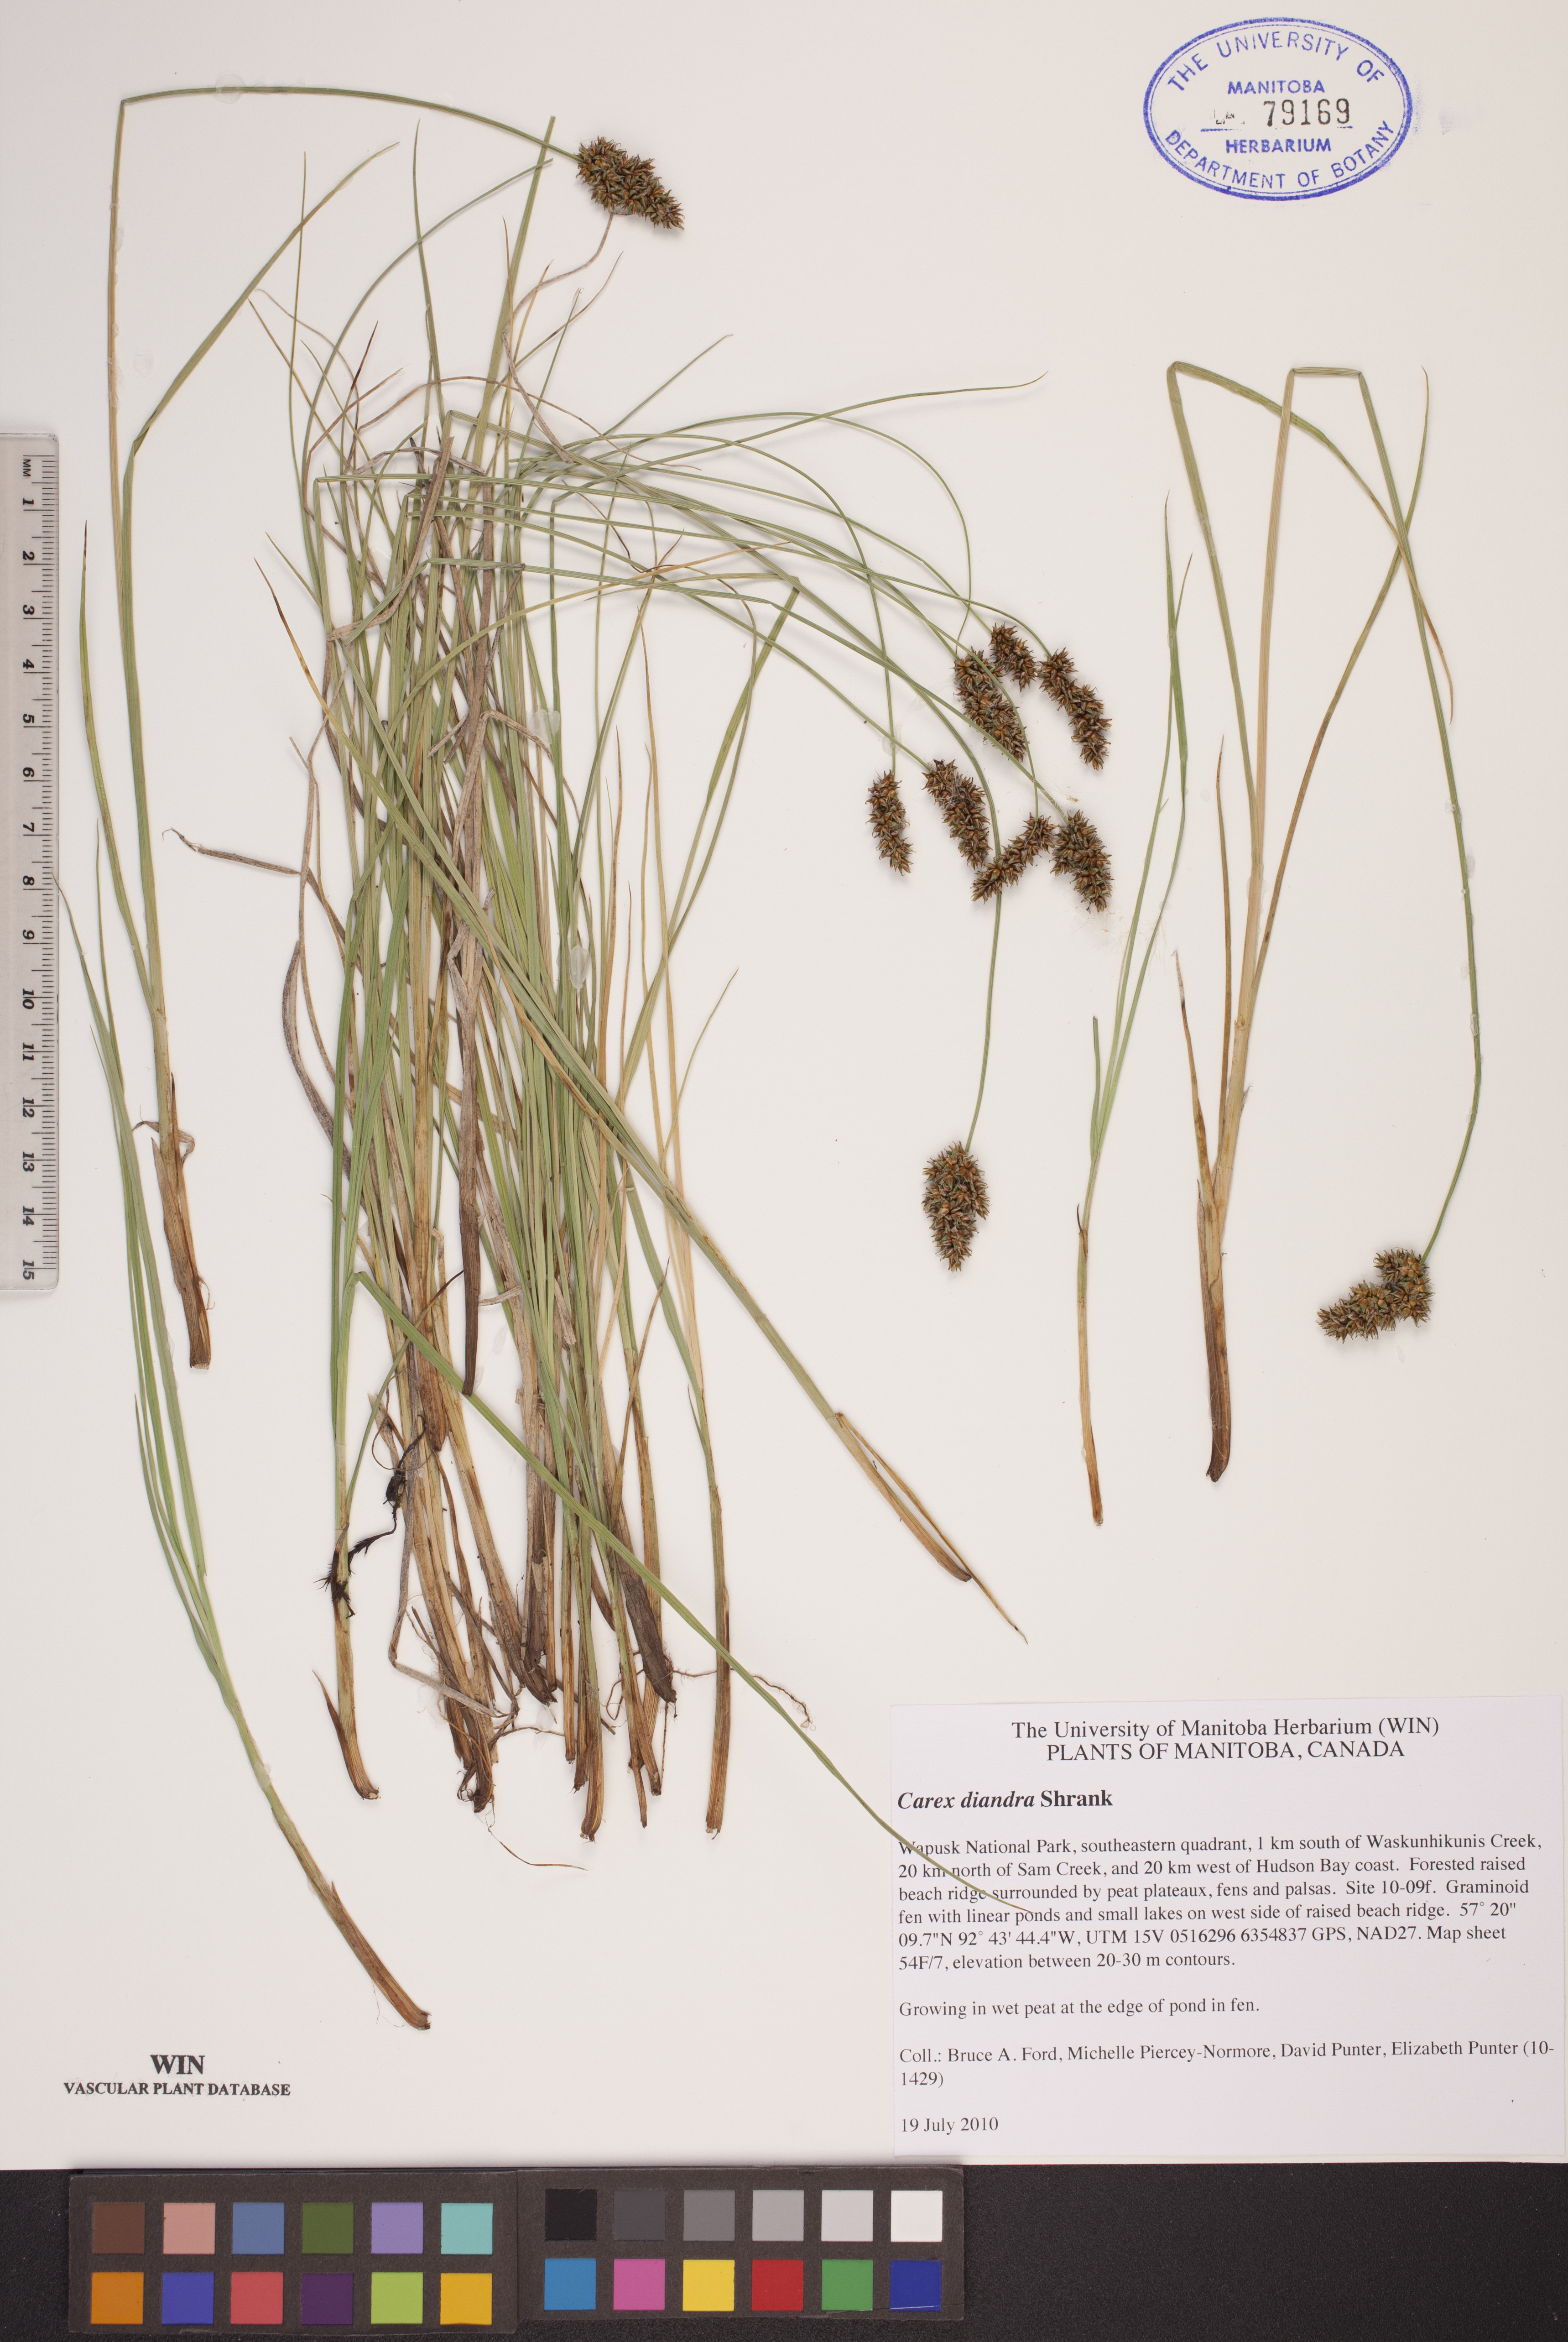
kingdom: Plantae
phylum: Tracheophyta
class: Liliopsida
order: Poales
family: Cyperaceae
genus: Carex
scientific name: Carex diandra
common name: Lesser tussock-sedge
